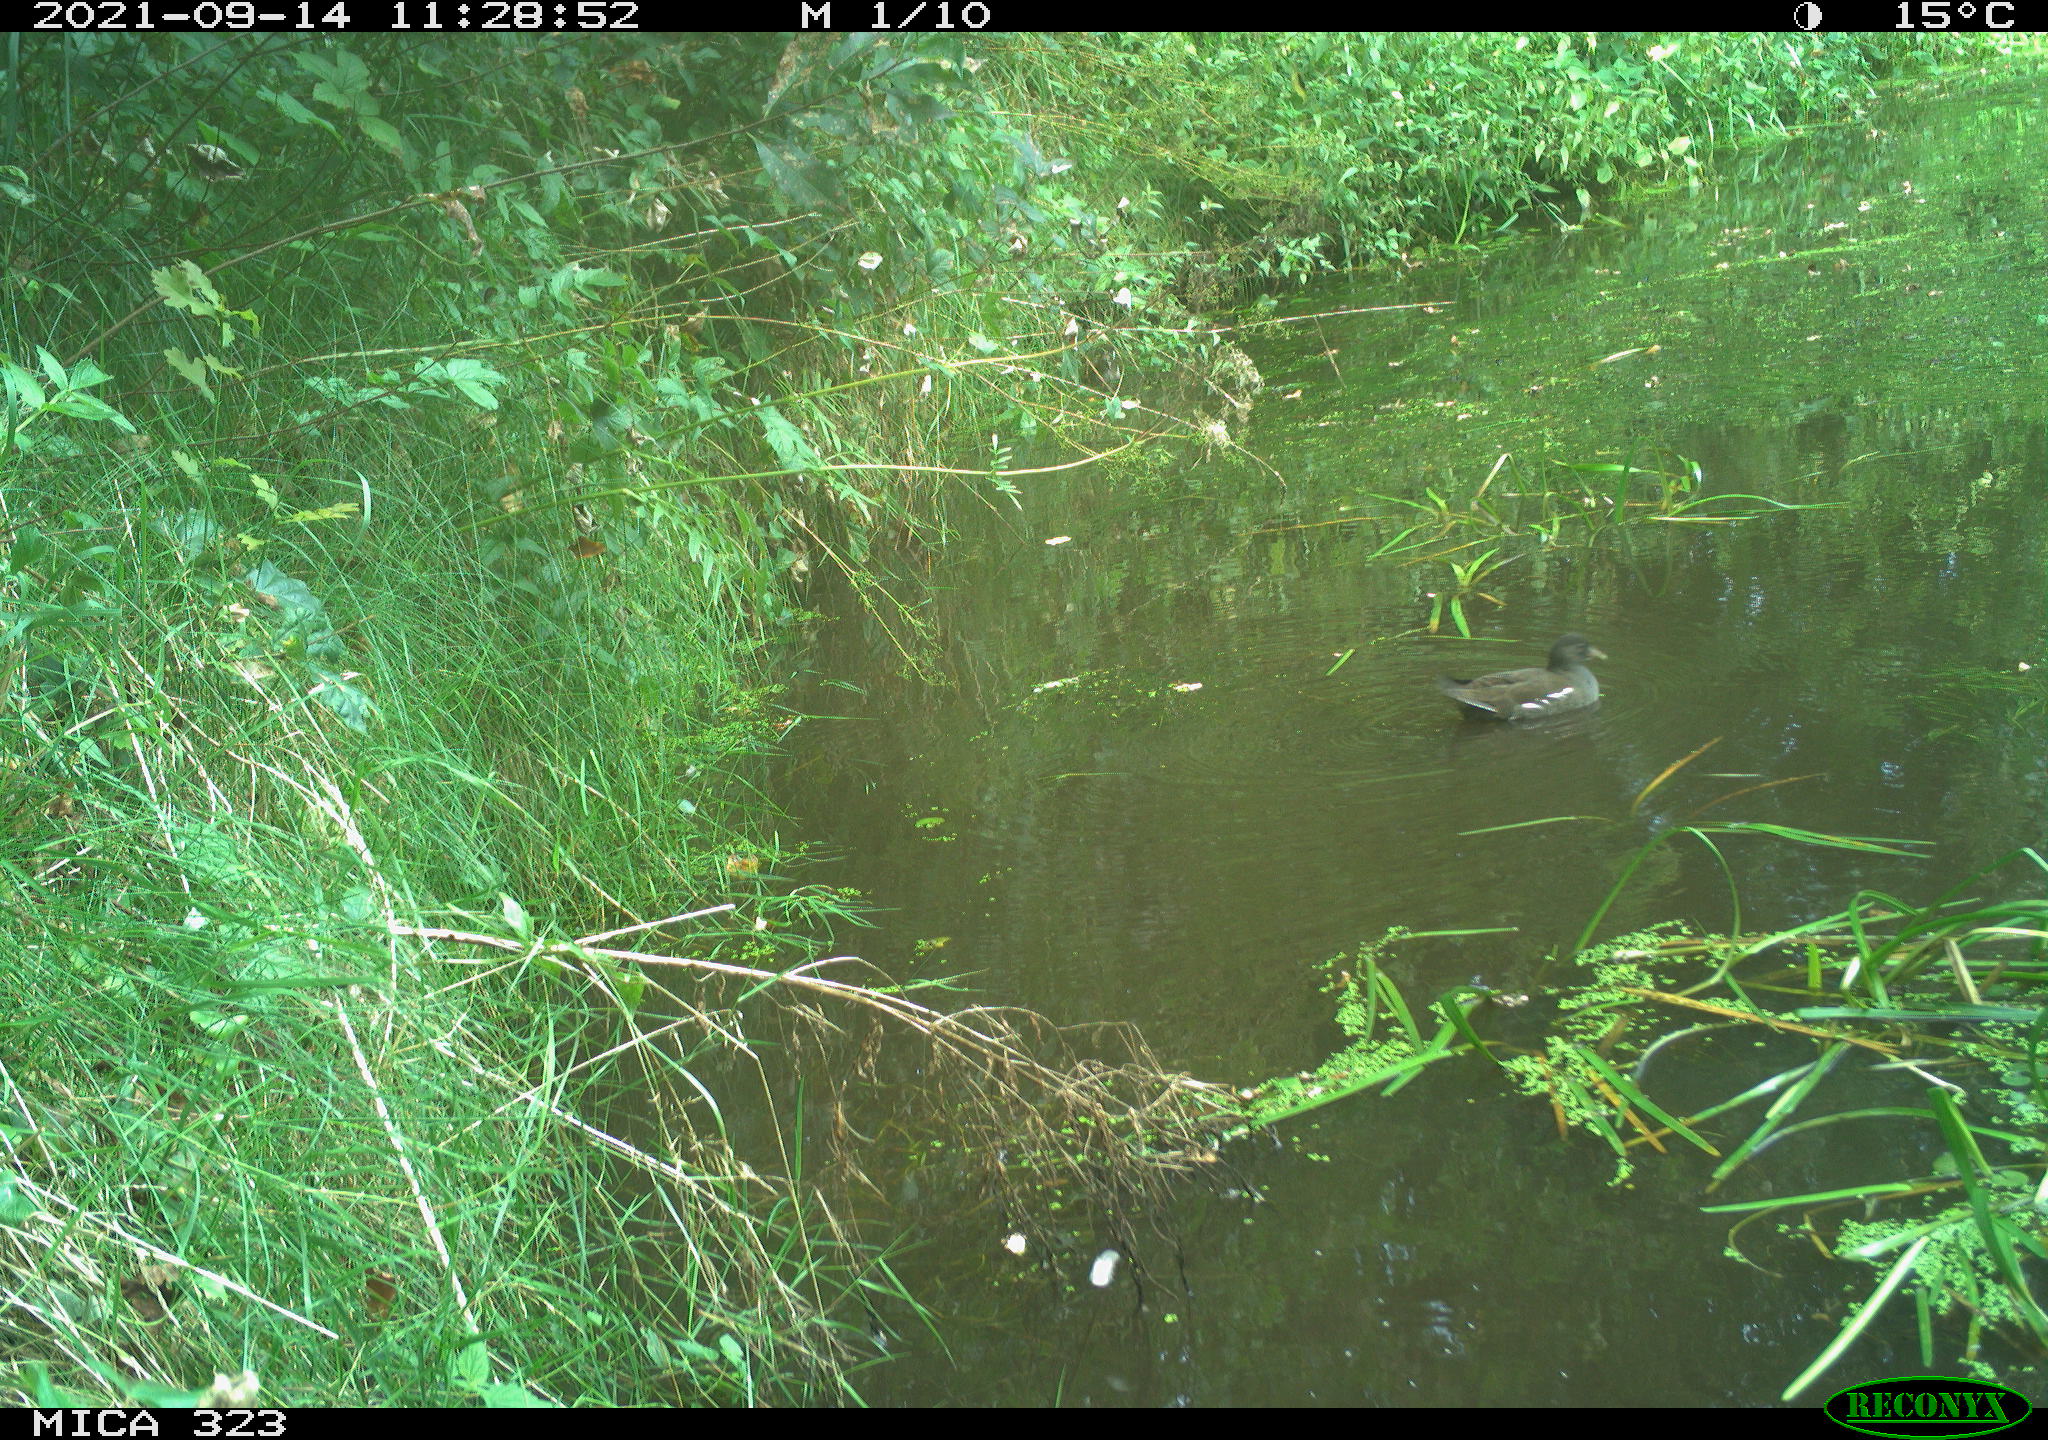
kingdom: Animalia
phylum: Chordata
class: Aves
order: Gruiformes
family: Rallidae
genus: Gallinula
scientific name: Gallinula chloropus
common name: Common moorhen
